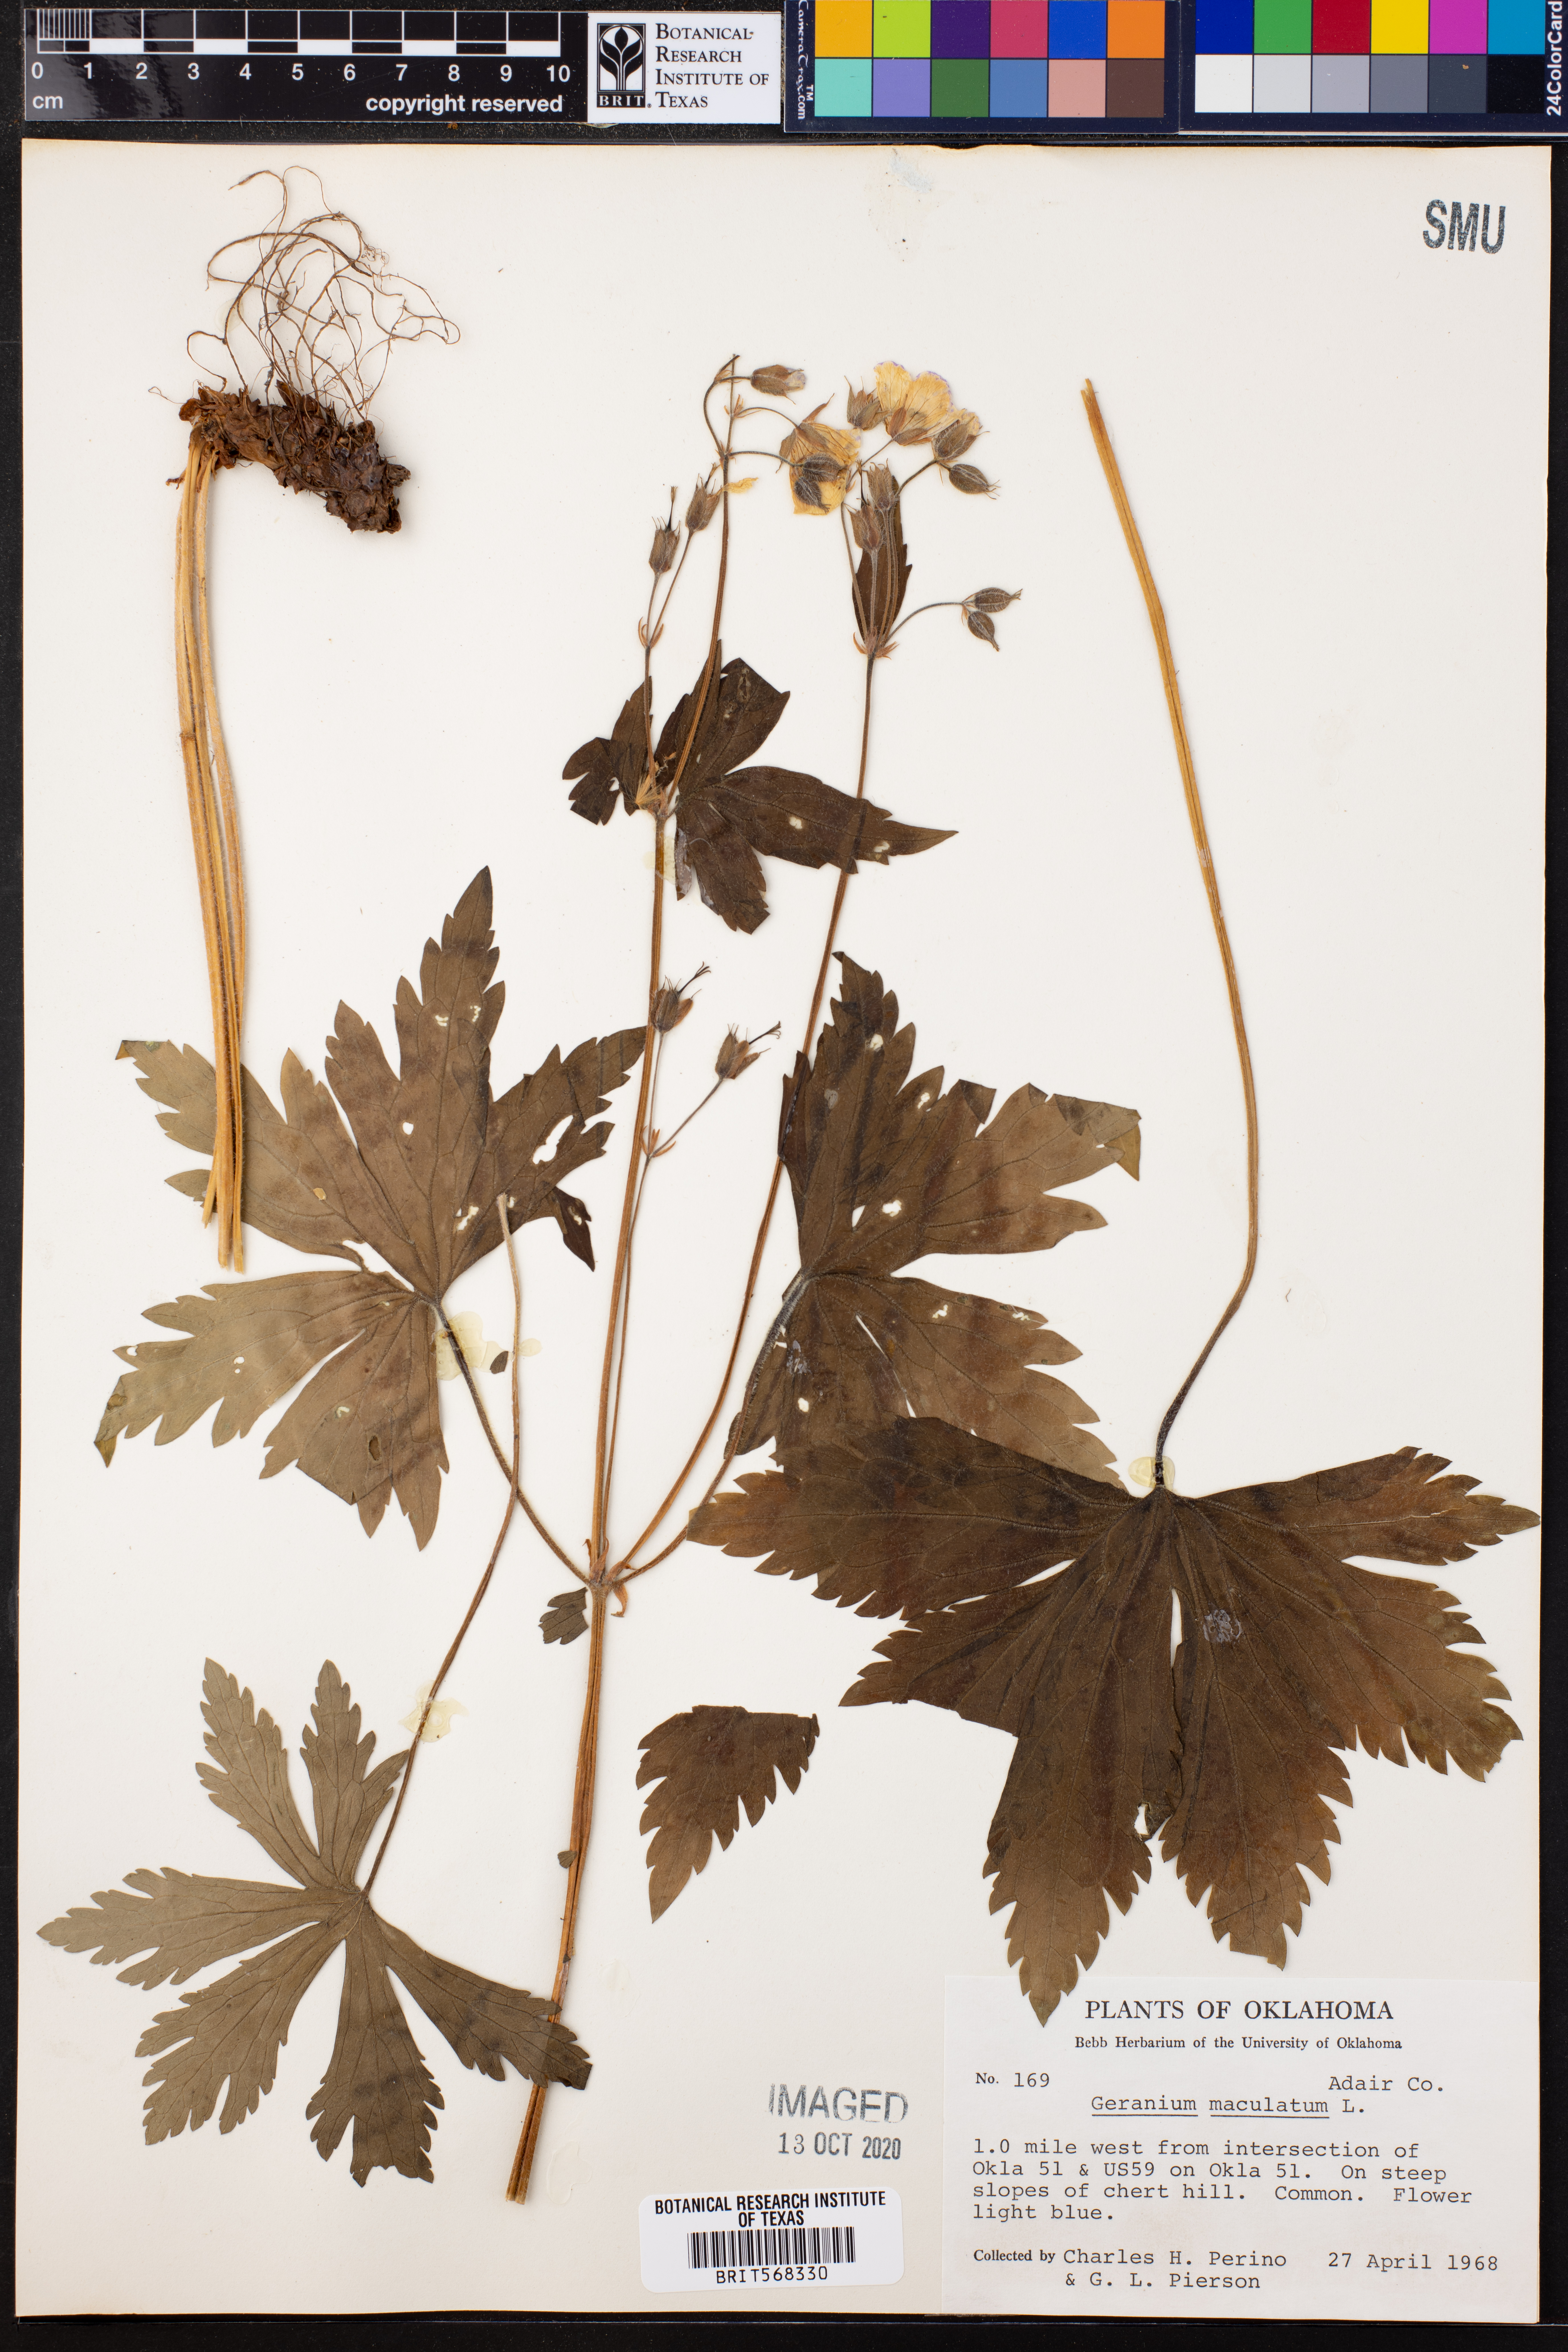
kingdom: Plantae
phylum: Tracheophyta
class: Magnoliopsida
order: Geraniales
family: Geraniaceae
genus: Geranium
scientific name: Geranium maculatum
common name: Spotted geranium
